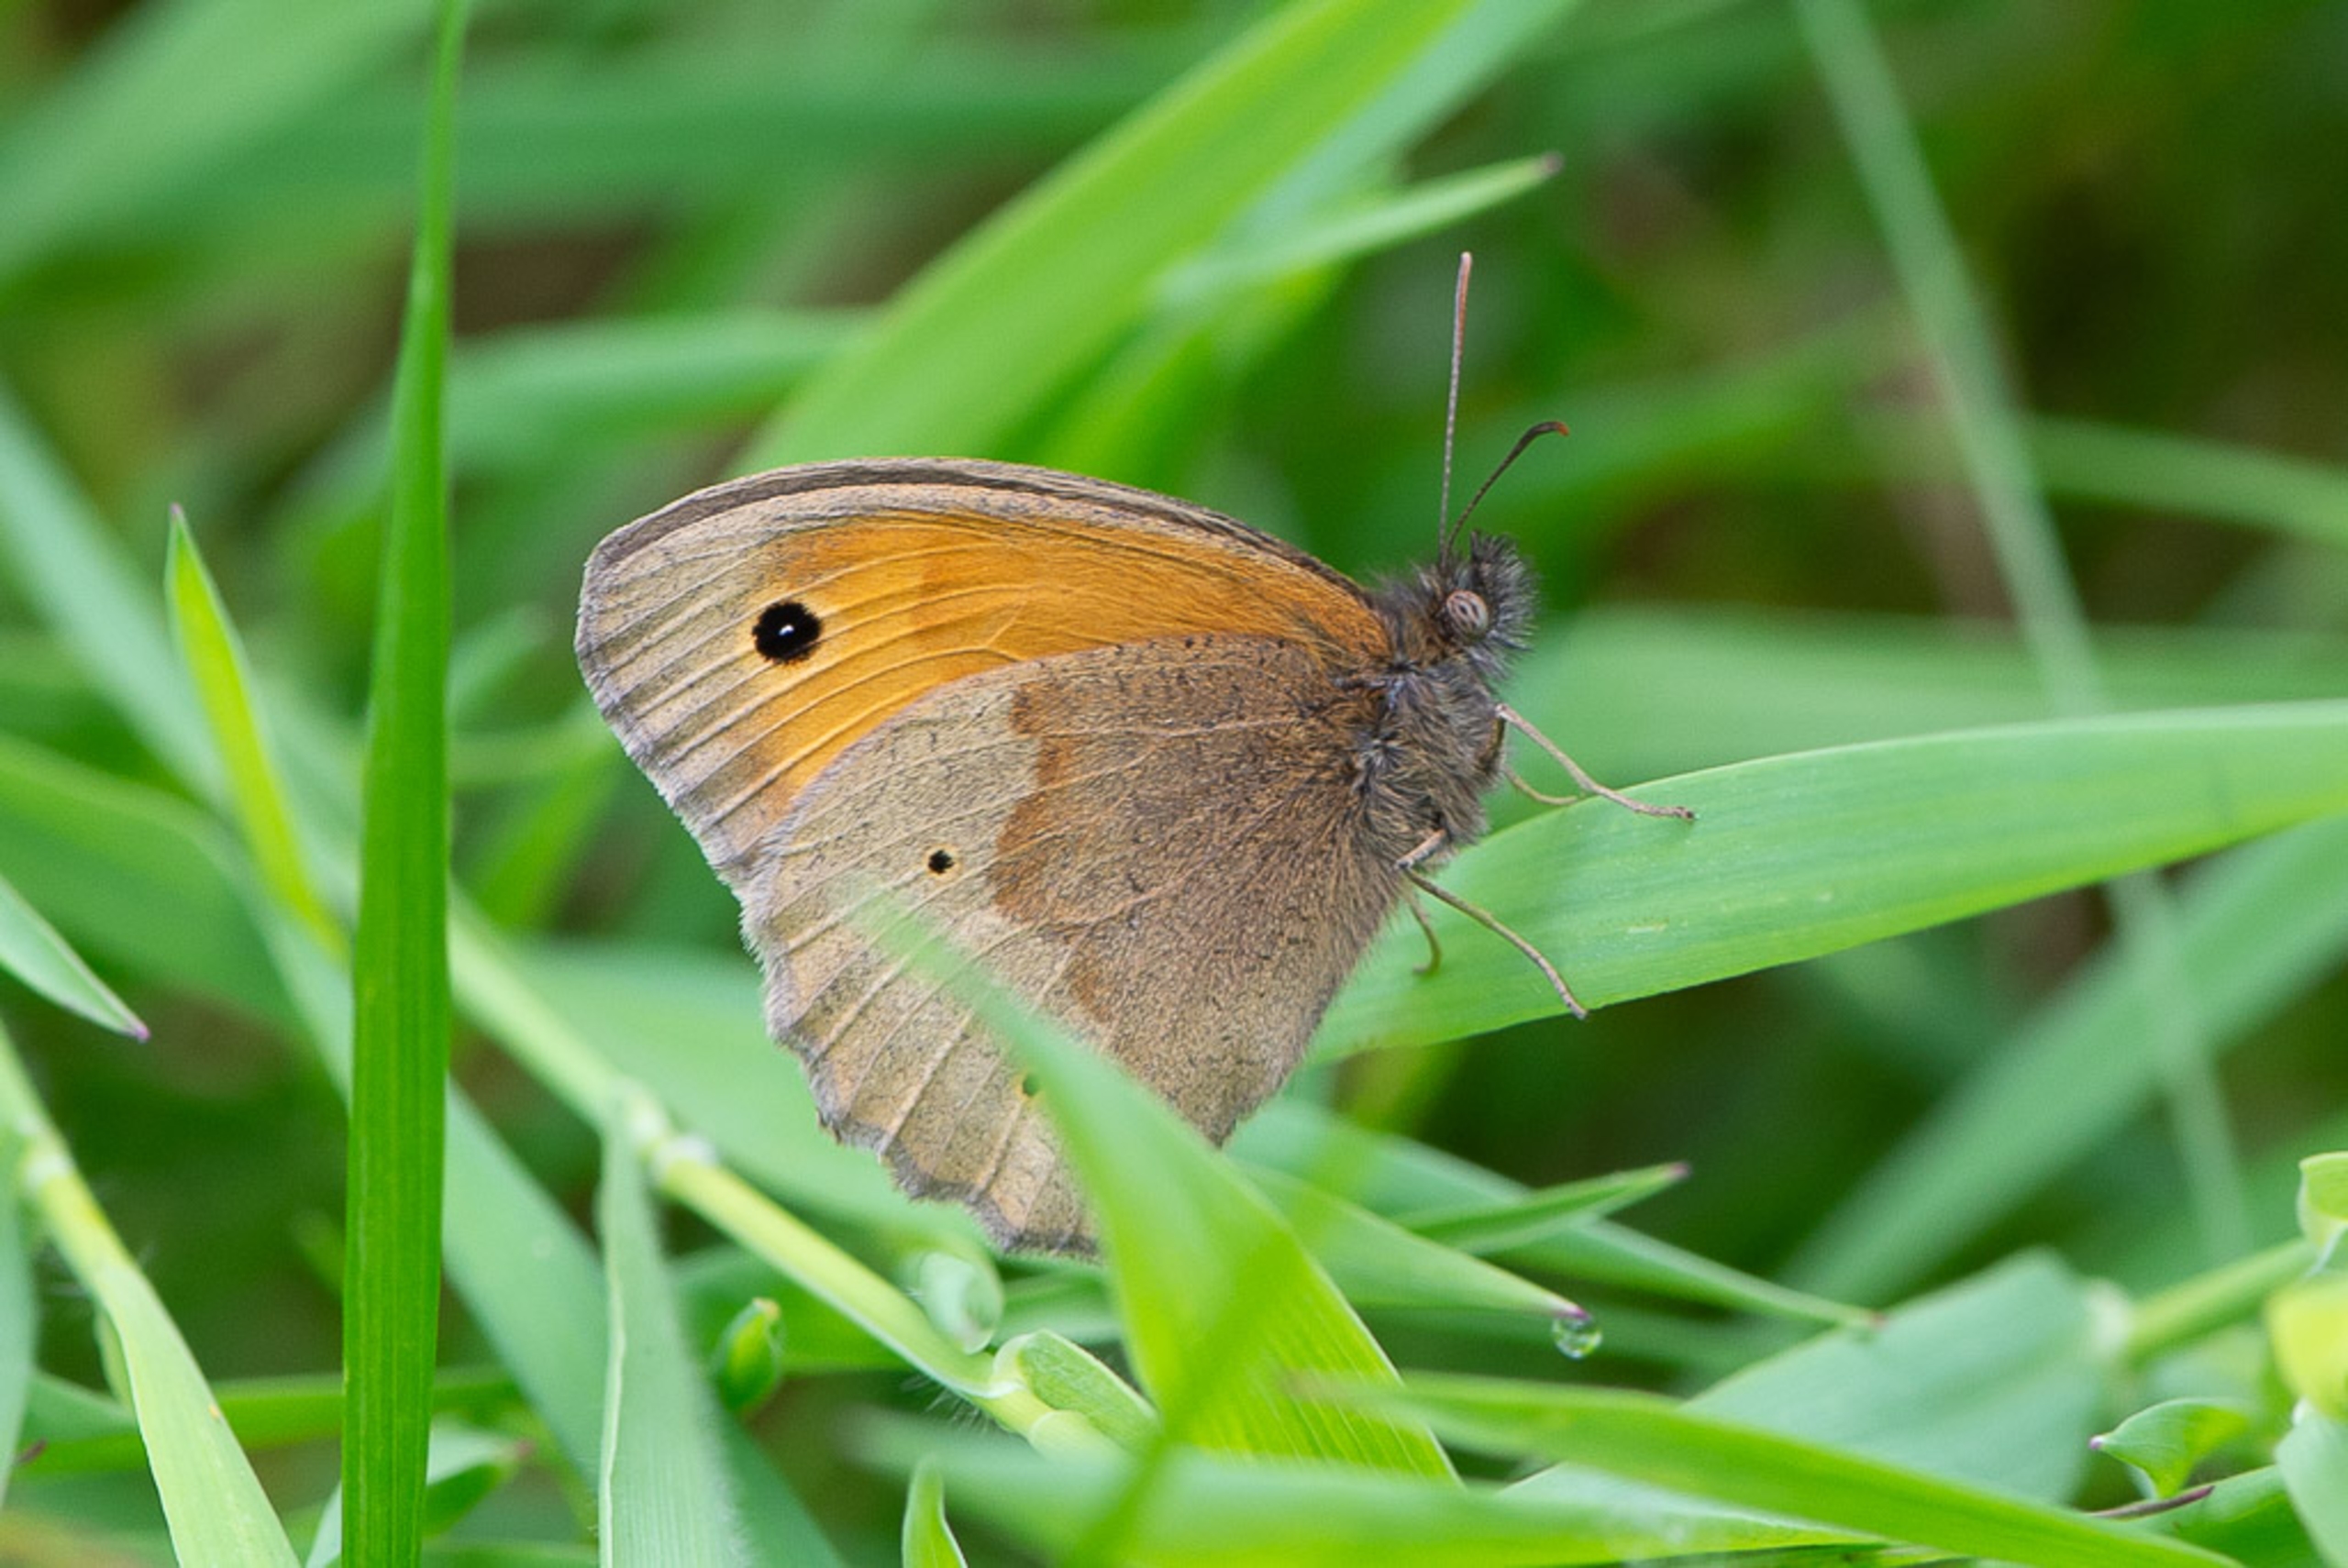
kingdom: Animalia
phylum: Arthropoda
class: Insecta
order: Lepidoptera
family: Nymphalidae
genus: Maniola
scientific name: Maniola jurtina
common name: Græsrandøje
